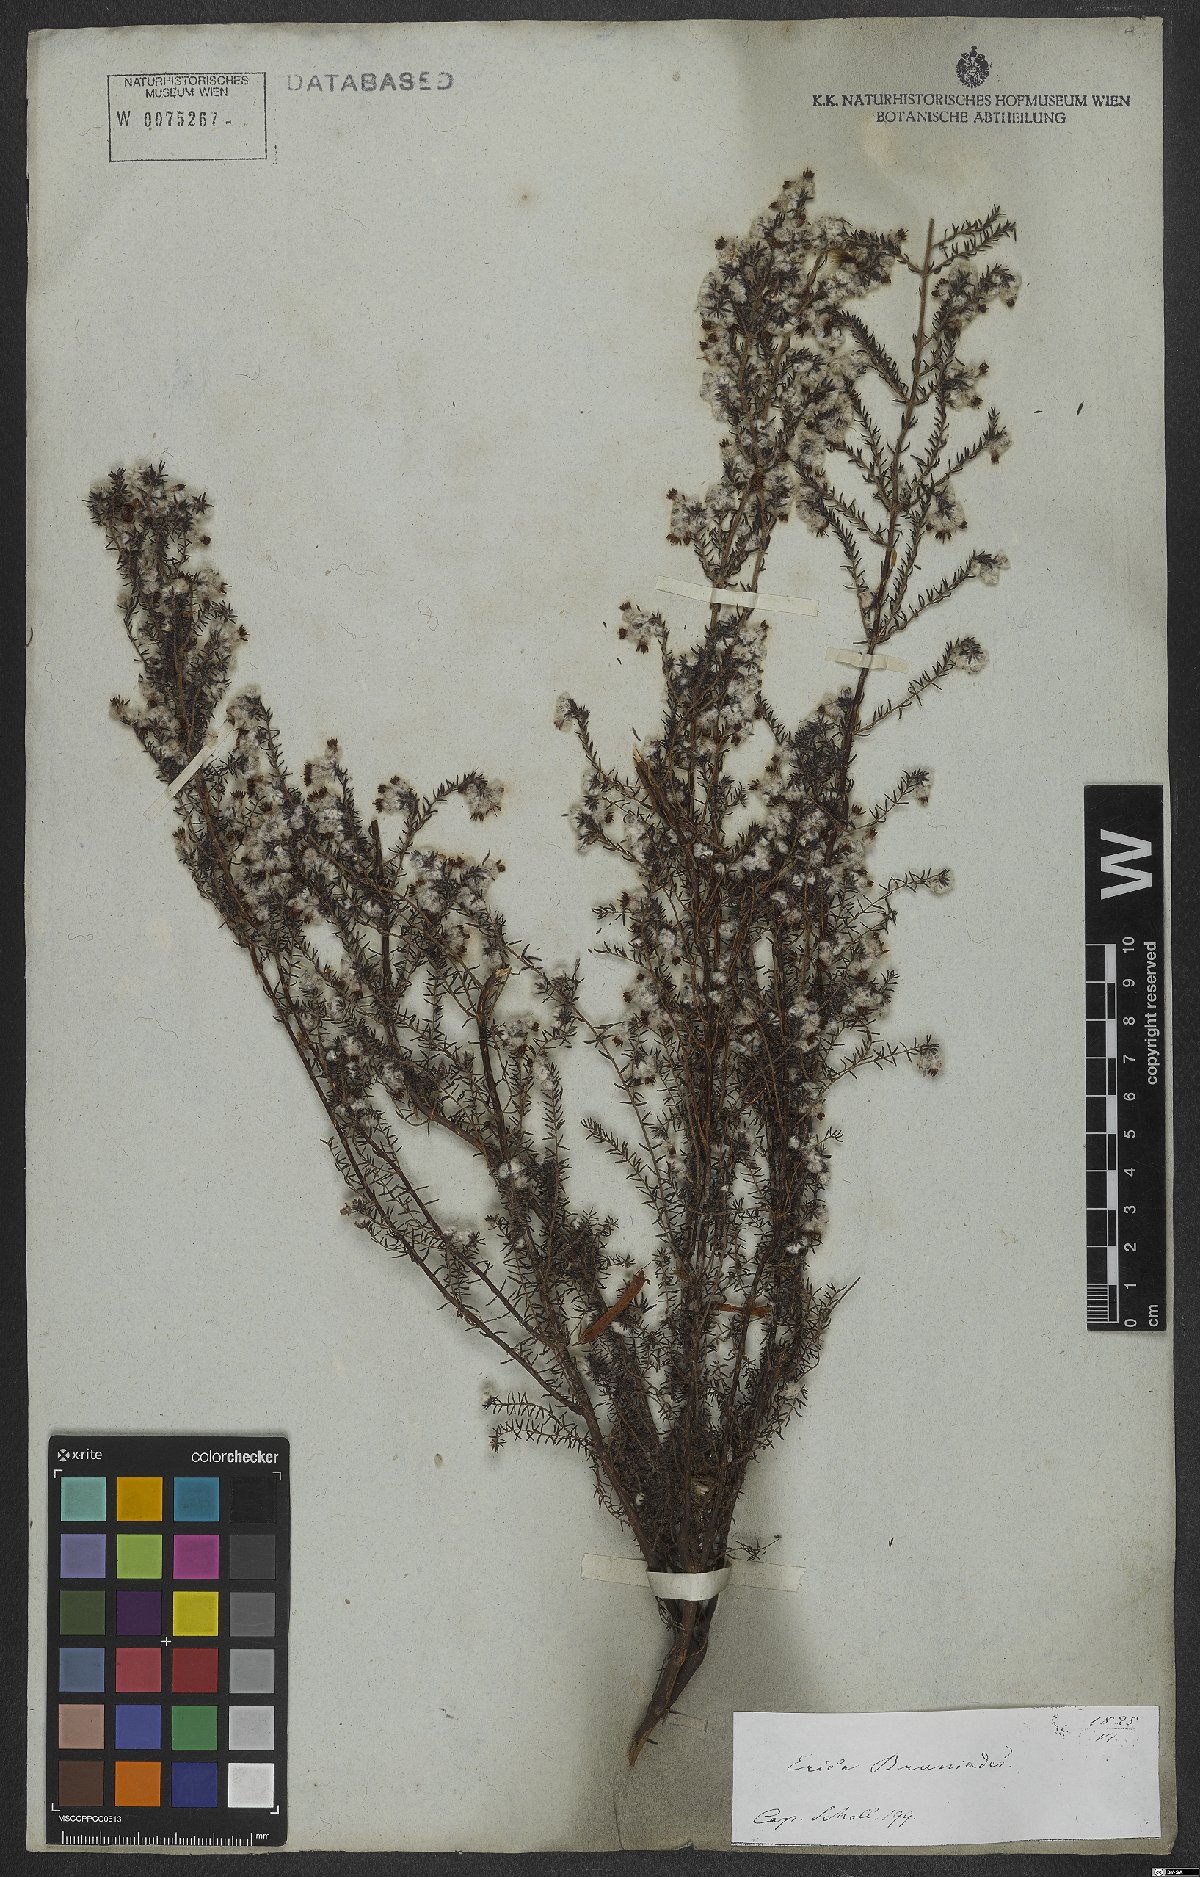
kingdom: Plantae
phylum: Tracheophyta
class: Magnoliopsida
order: Ericales
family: Ericaceae
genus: Erica
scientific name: Erica bruniades
